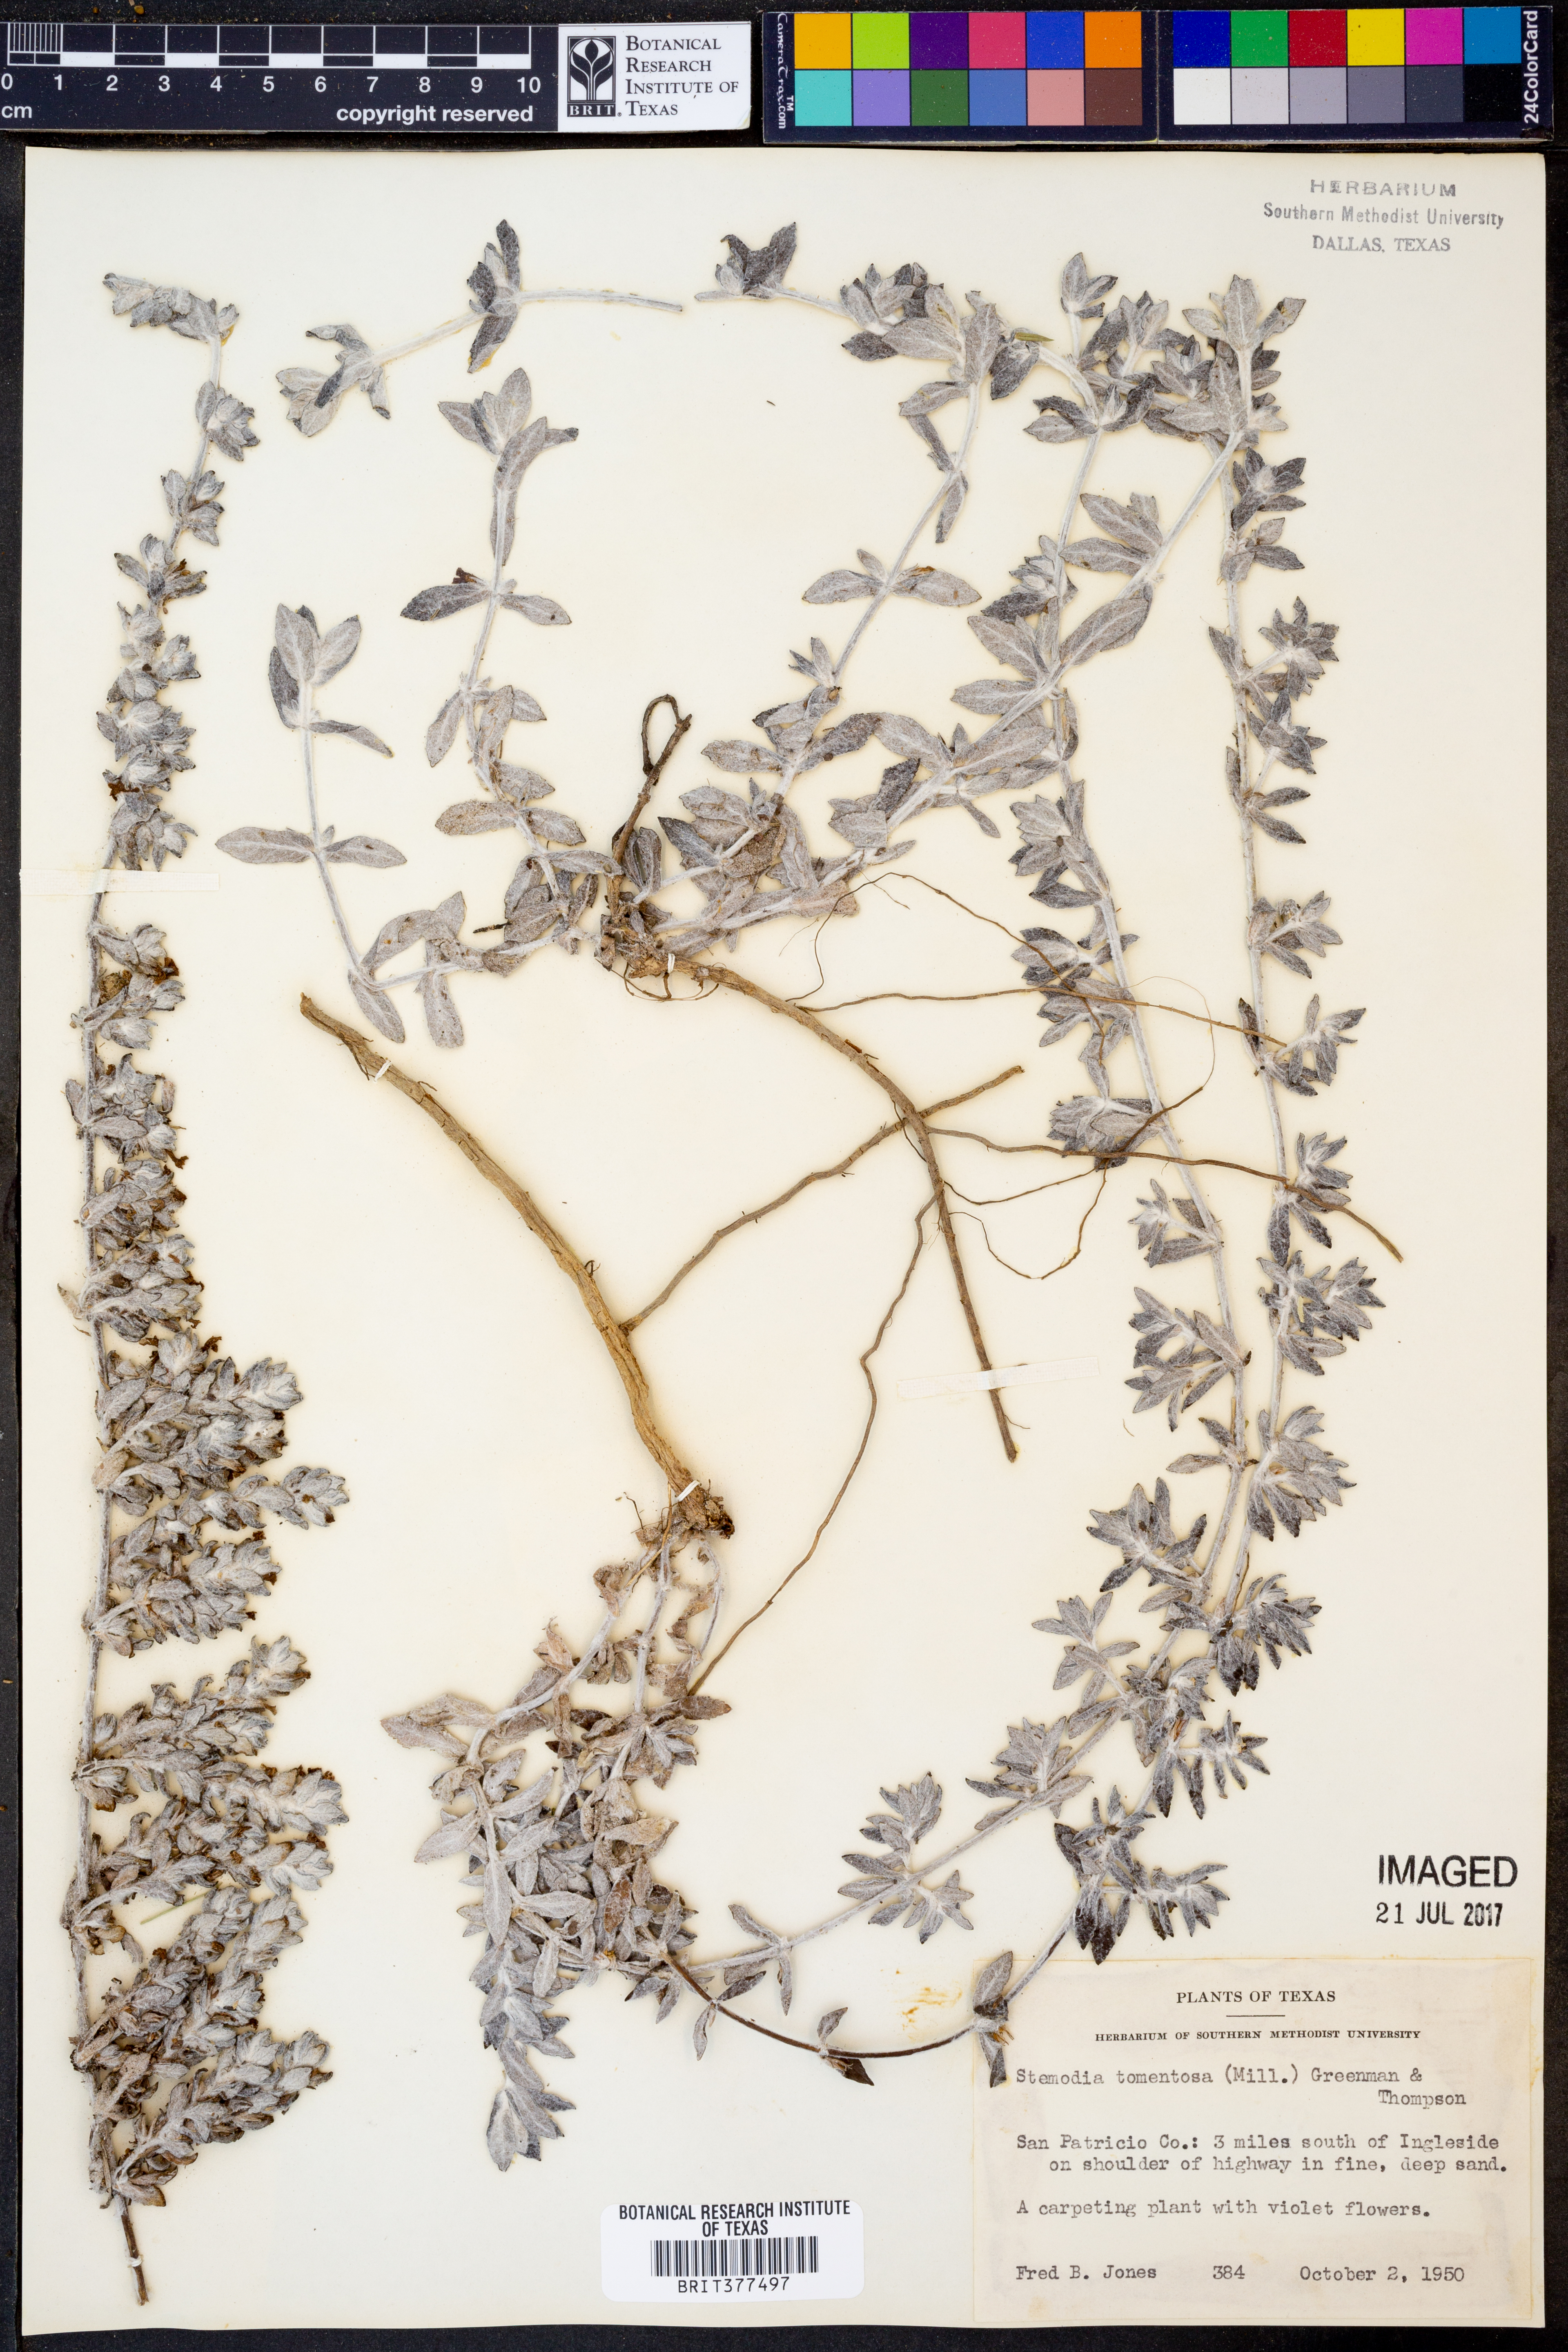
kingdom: Plantae
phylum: Tracheophyta
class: Magnoliopsida
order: Lamiales
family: Plantaginaceae
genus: Stemodia
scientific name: Stemodia lanata
